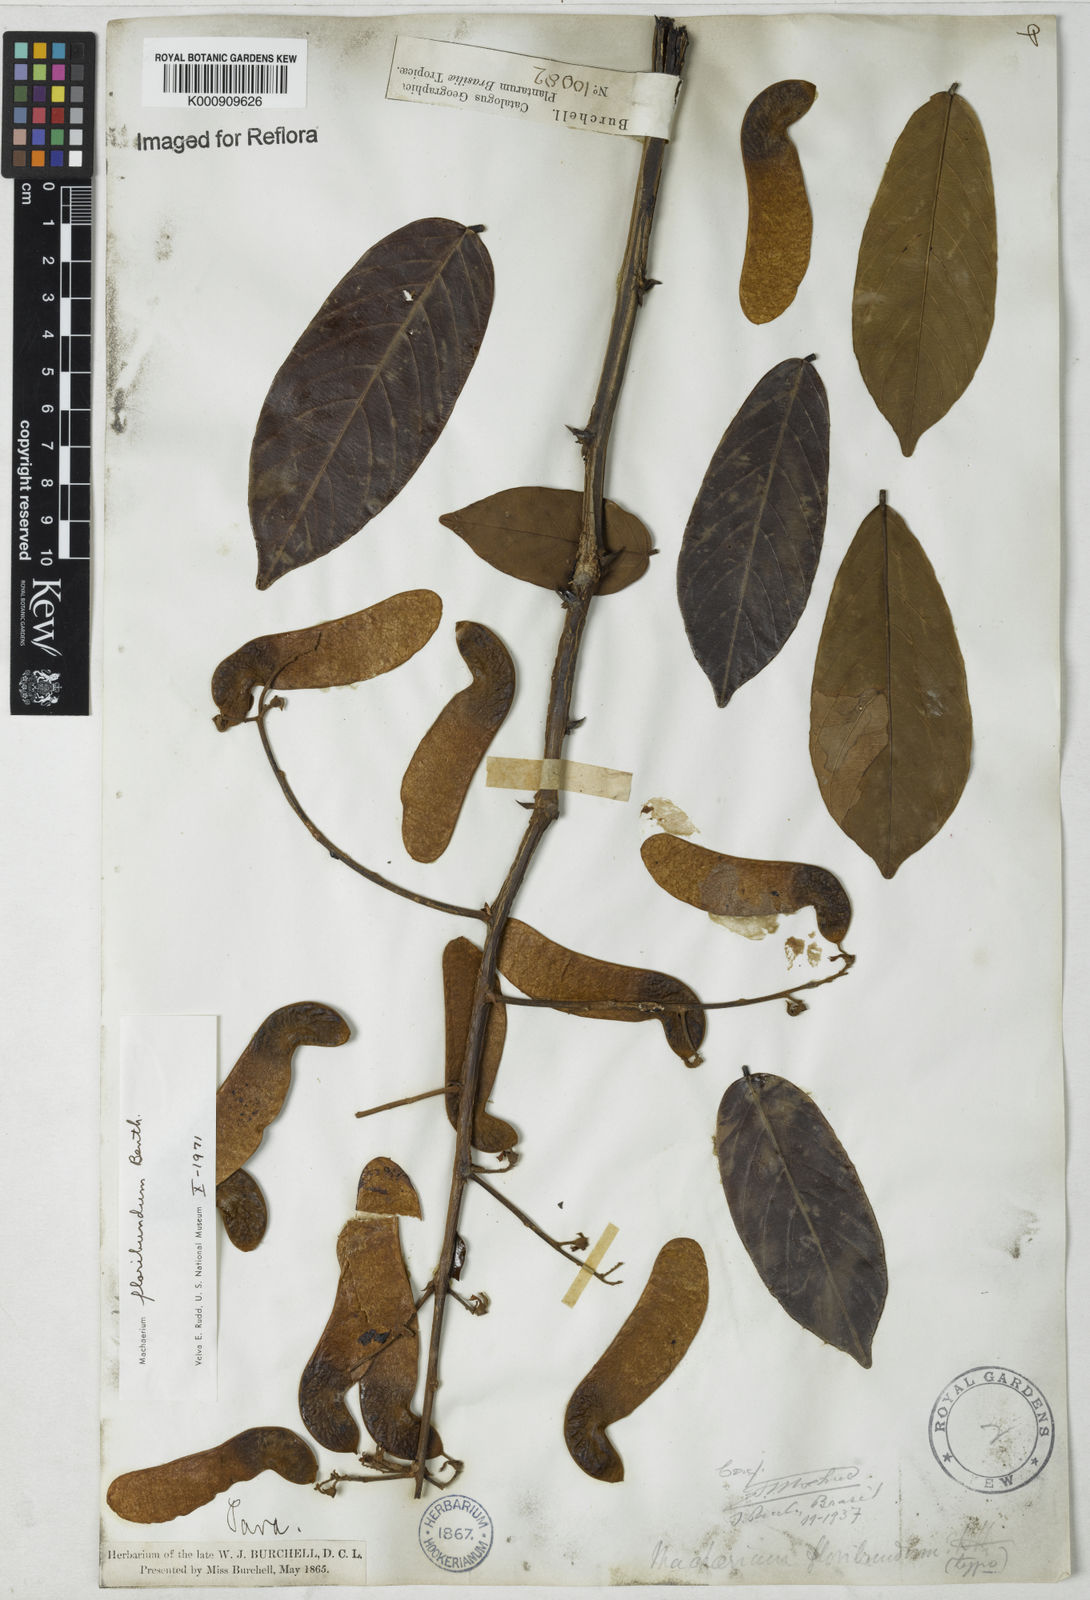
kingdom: Plantae
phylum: Tracheophyta
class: Magnoliopsida
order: Fabales
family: Fabaceae
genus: Machaerium
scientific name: Machaerium floribundum
